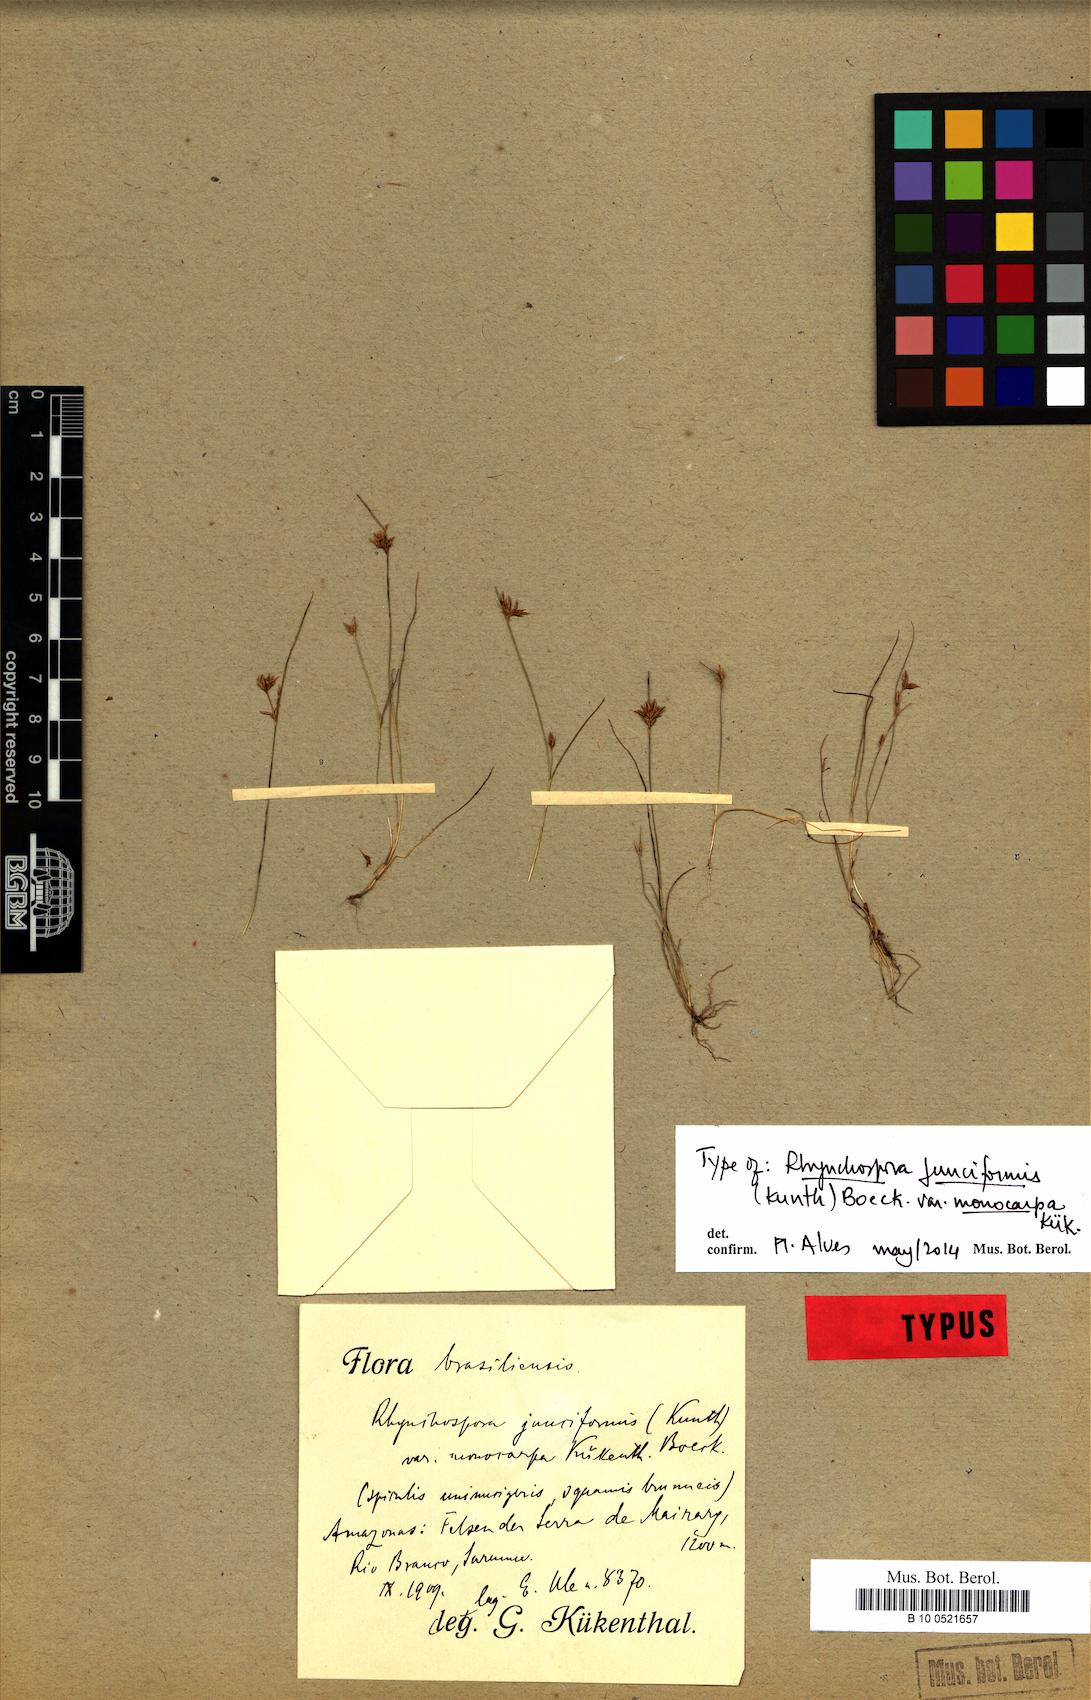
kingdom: Plantae
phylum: Tracheophyta
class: Liliopsida
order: Poales
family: Cyperaceae
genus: Rhynchospora
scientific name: Rhynchospora junciformis
